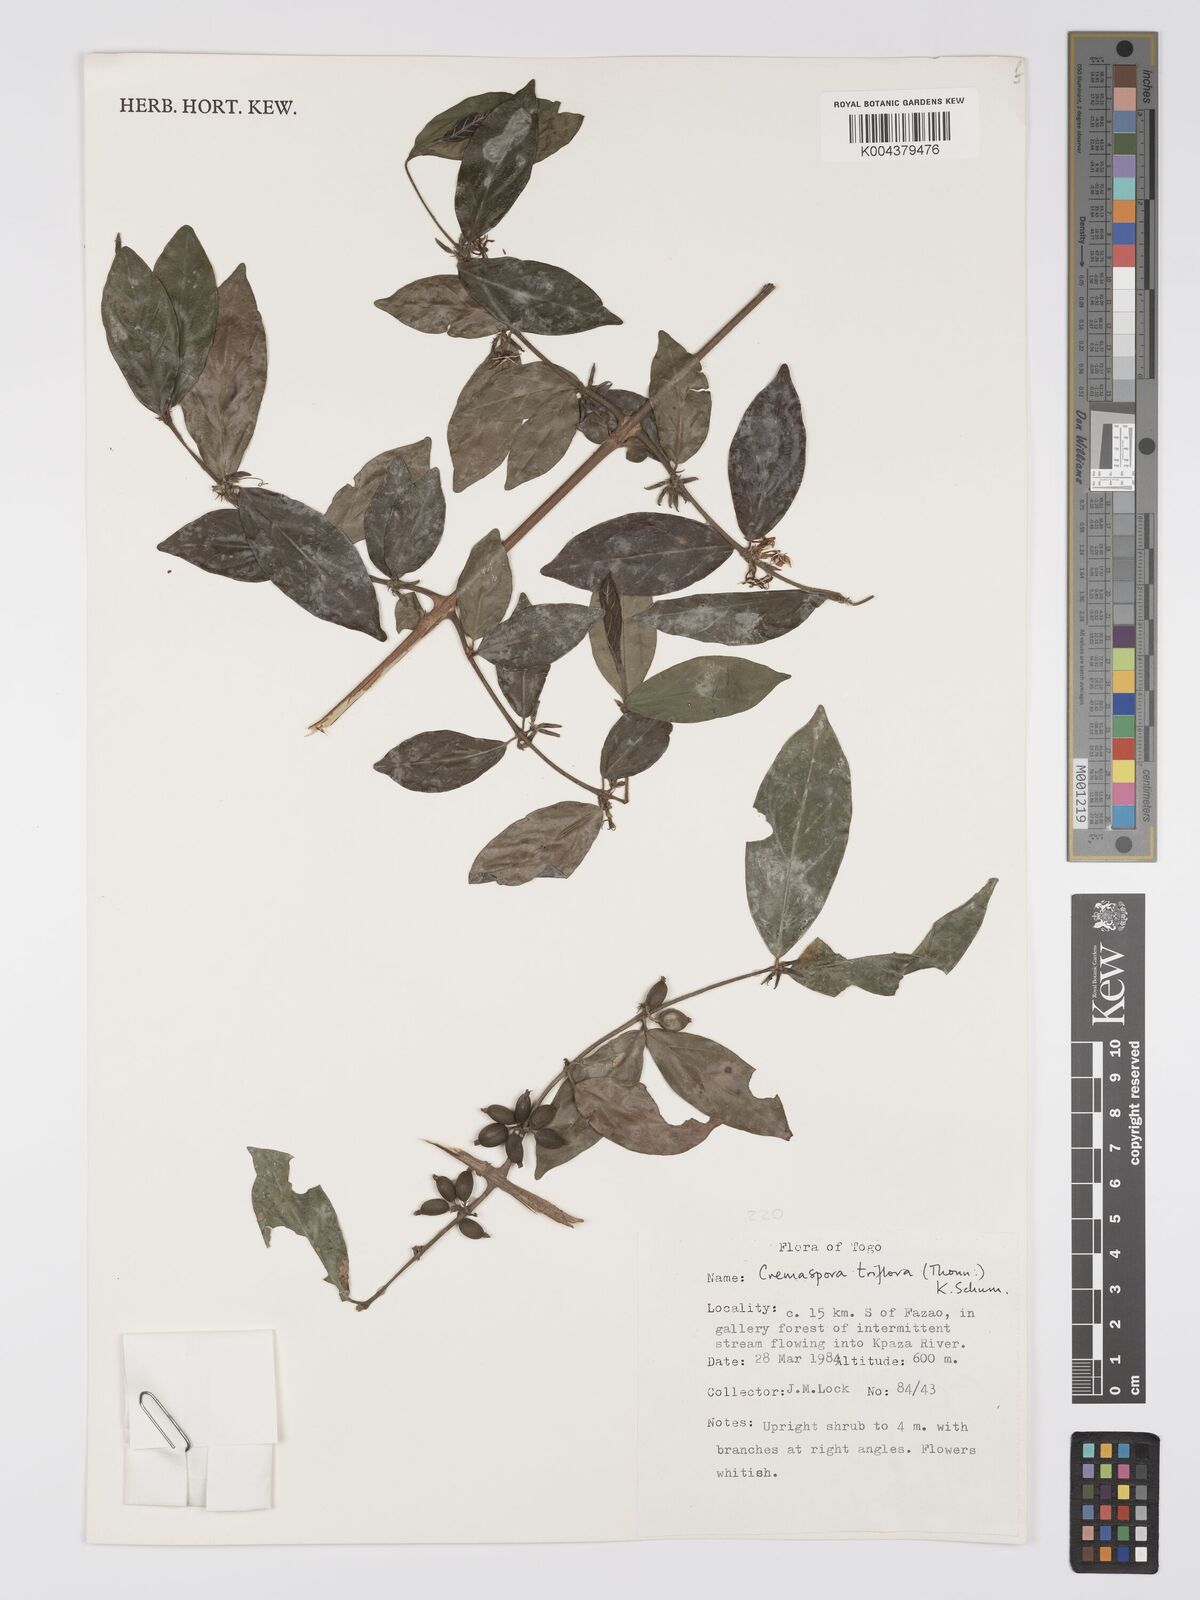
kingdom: Plantae
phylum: Tracheophyta
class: Magnoliopsida
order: Gentianales
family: Rubiaceae
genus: Cremaspora
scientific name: Cremaspora triflora
